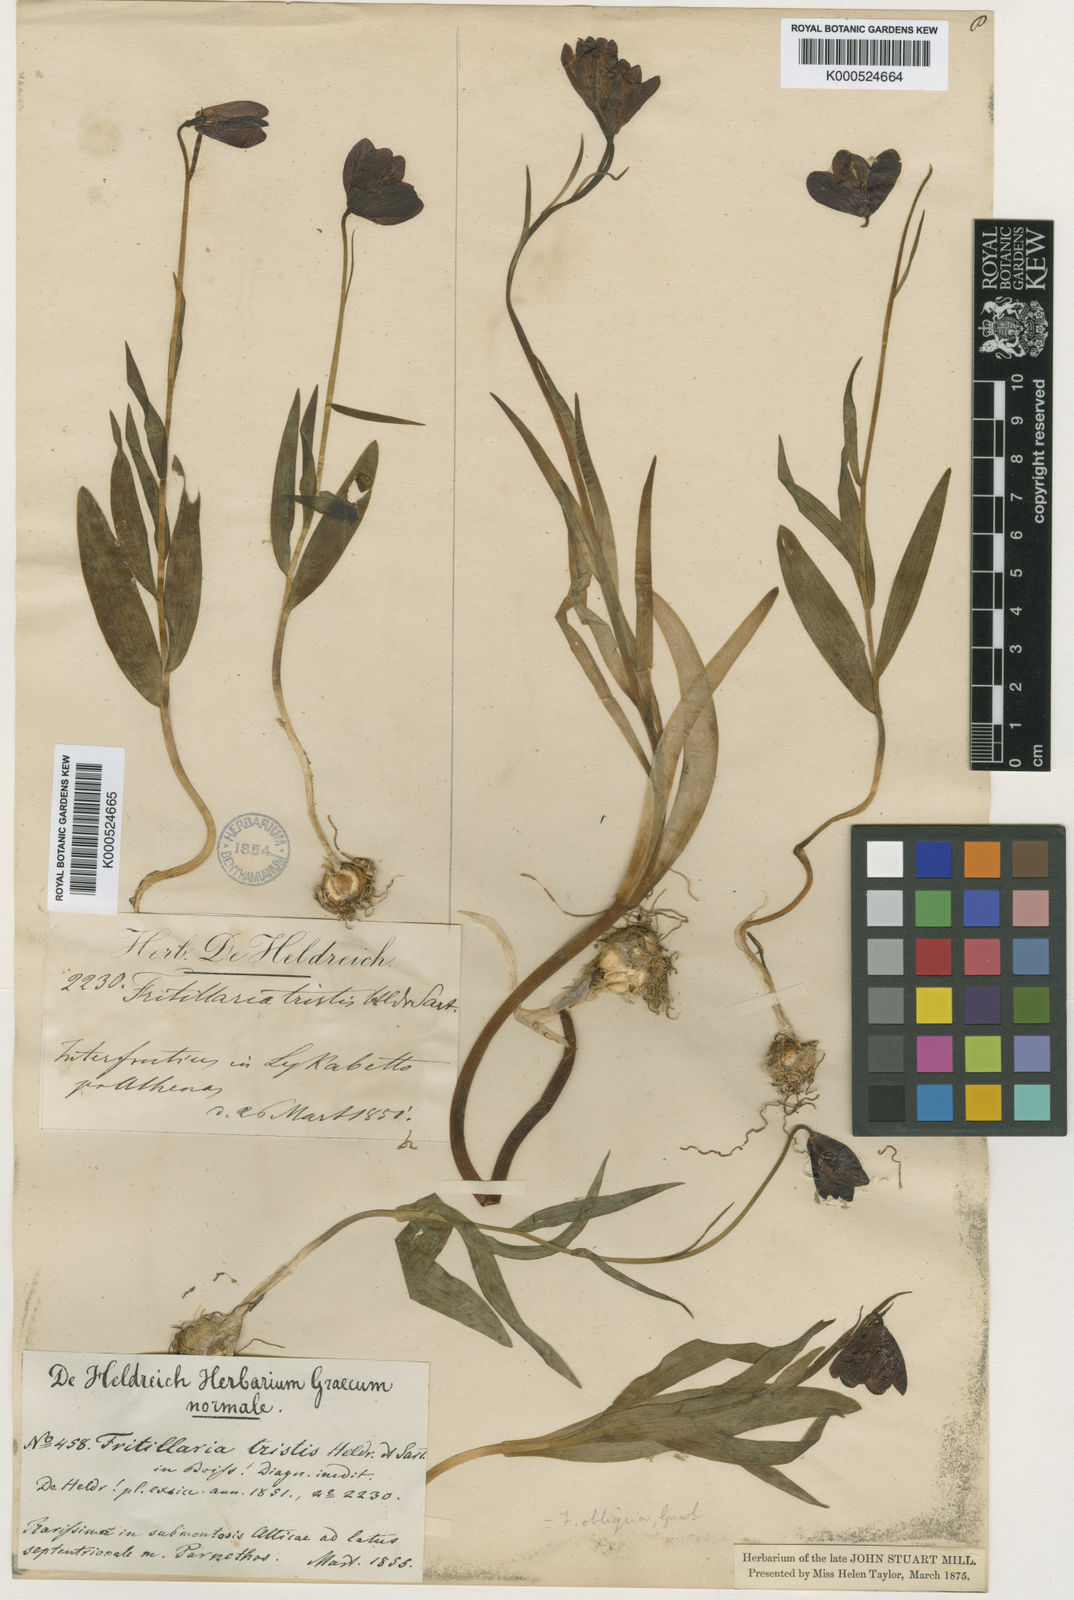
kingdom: Plantae
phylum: Tracheophyta
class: Liliopsida
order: Liliales
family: Liliaceae
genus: Fritillaria
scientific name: Fritillaria obliqua
